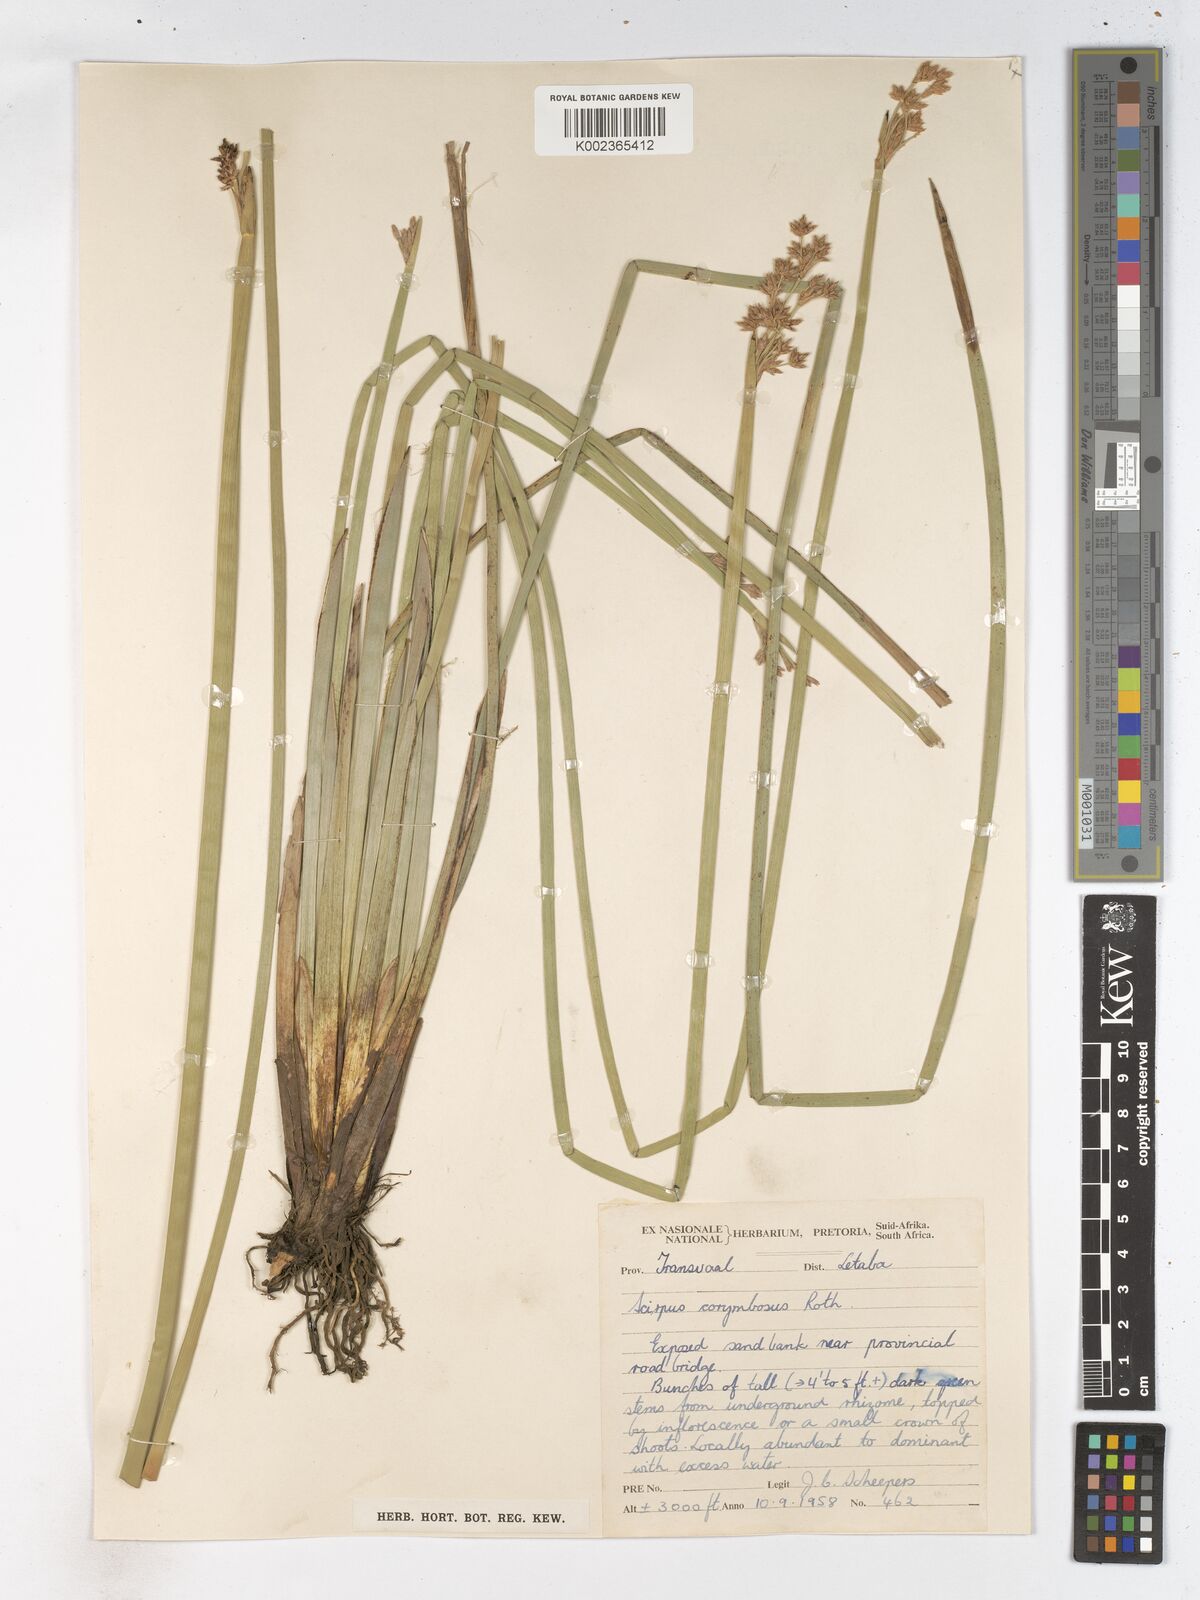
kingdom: Plantae
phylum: Tracheophyta
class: Liliopsida
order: Poales
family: Cyperaceae
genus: Schoenoplectiella
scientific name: Schoenoplectiella brachyceras
